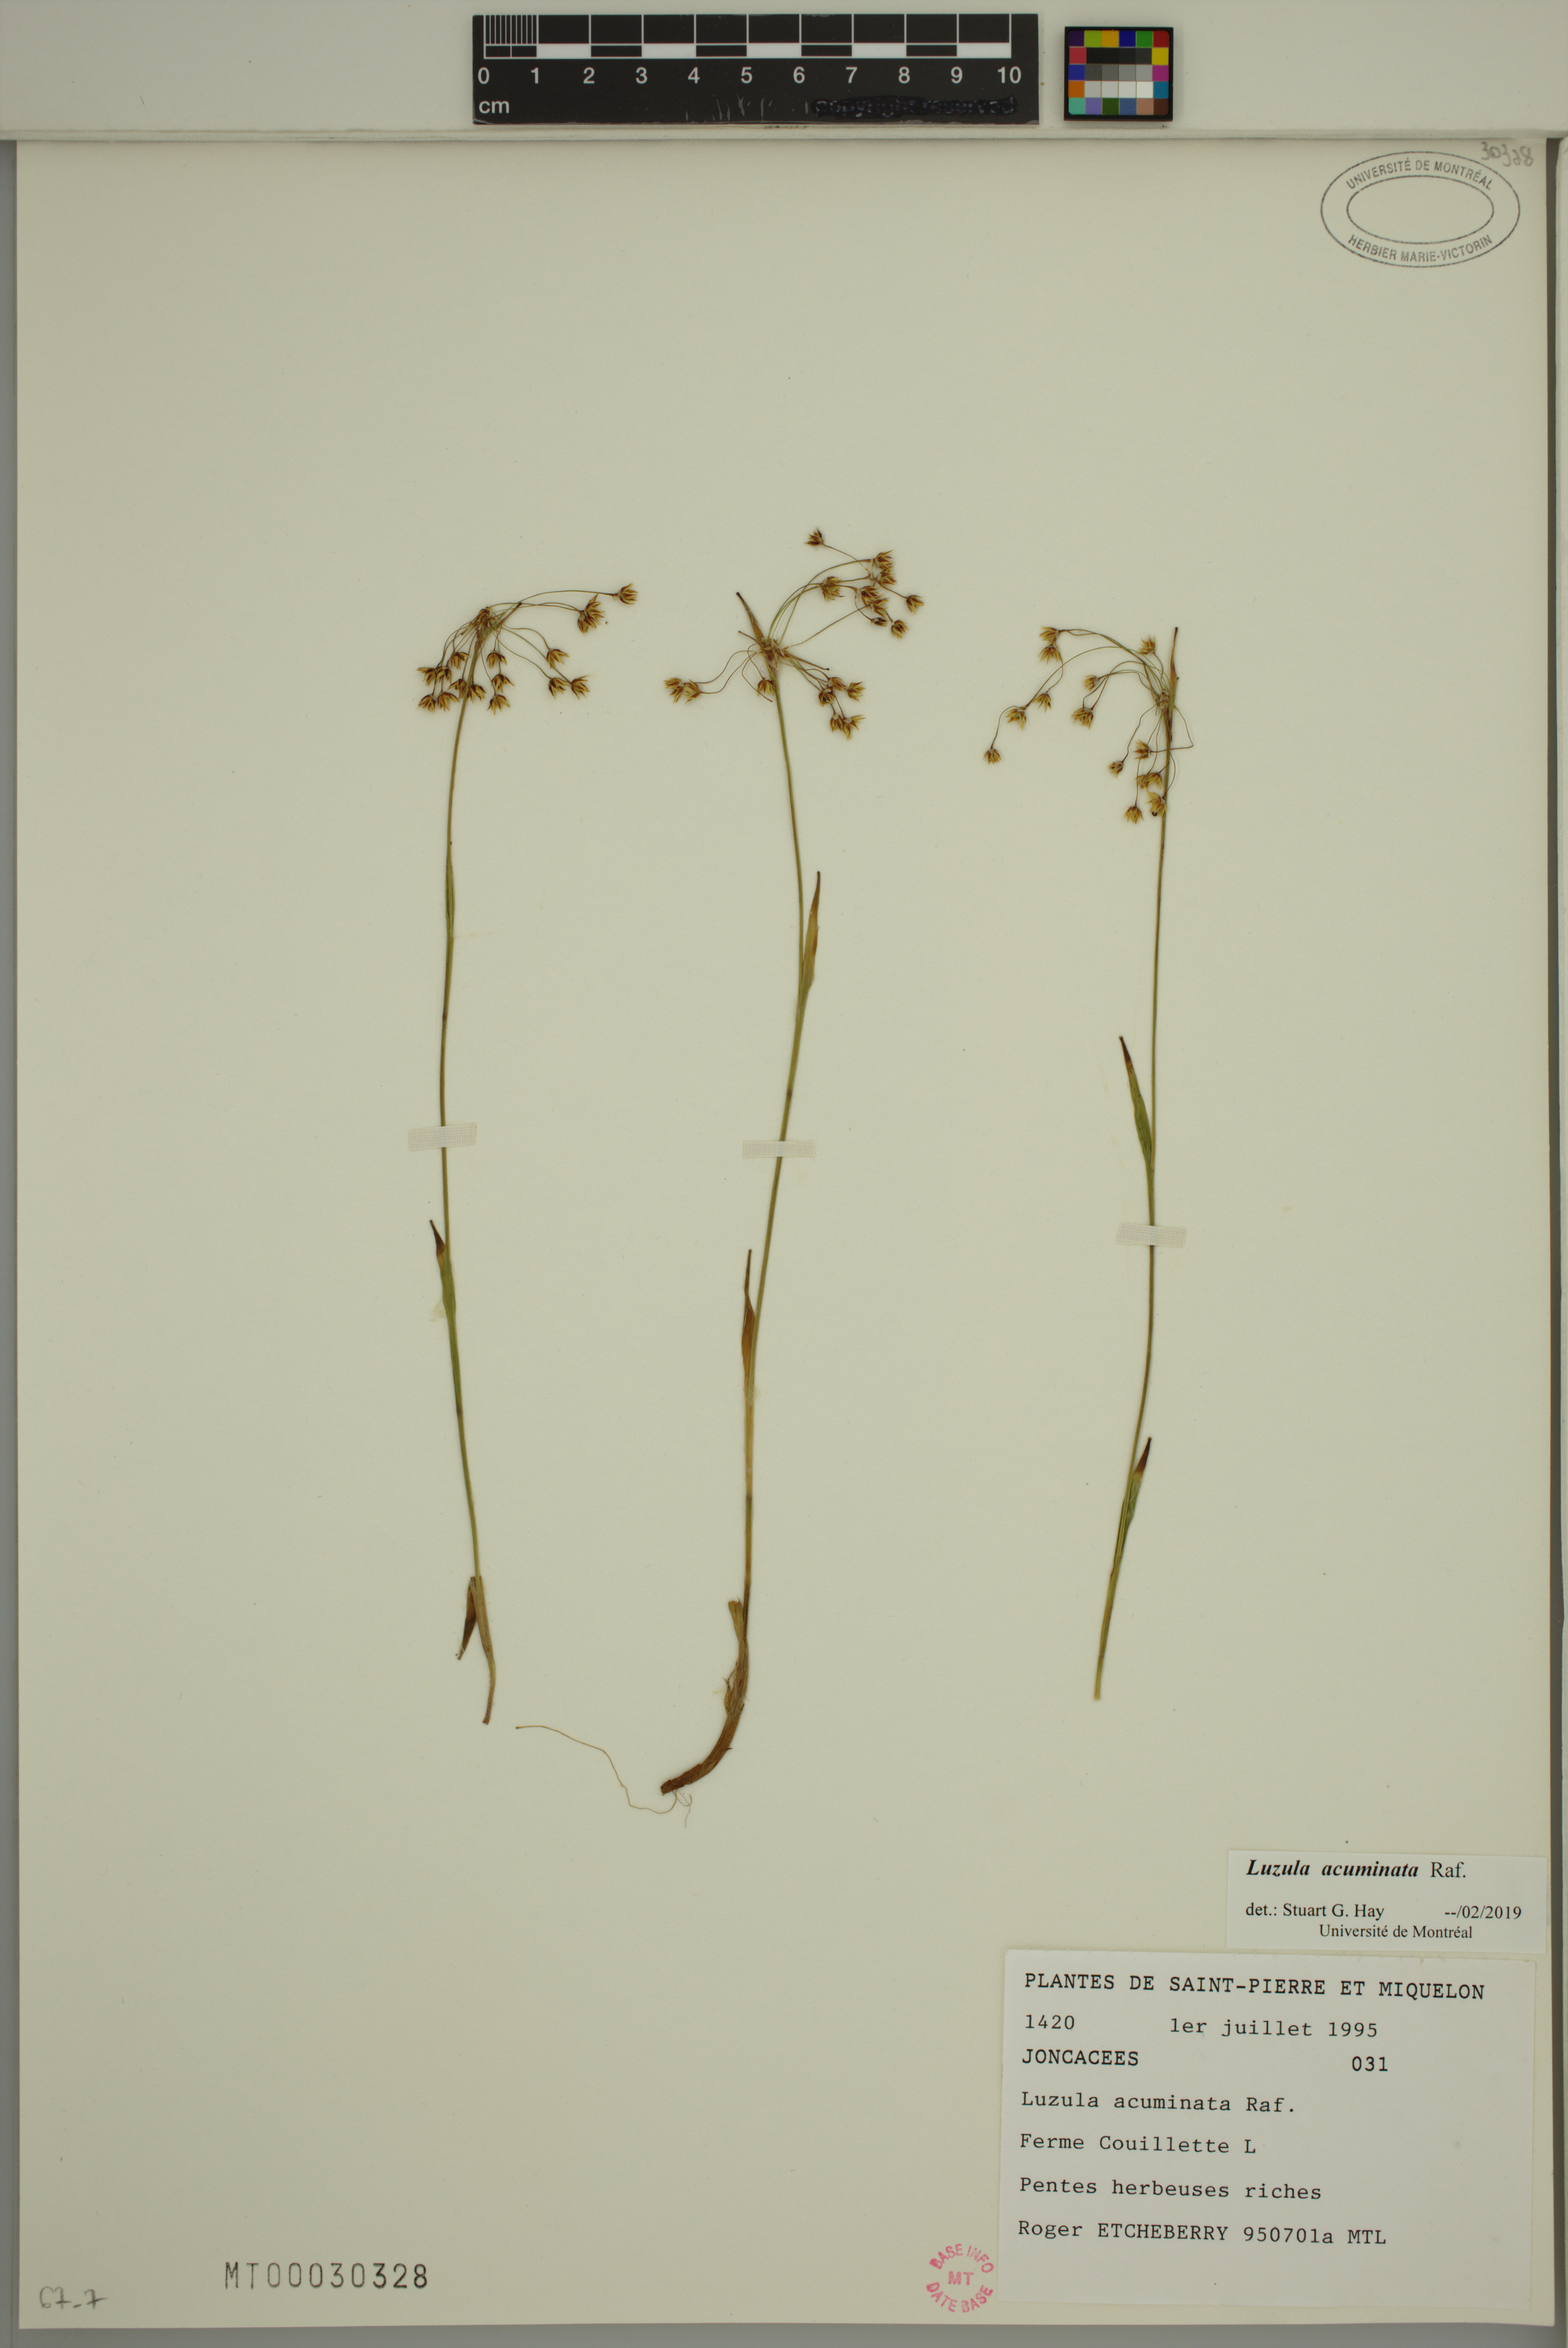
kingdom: Plantae
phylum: Tracheophyta
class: Liliopsida
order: Poales
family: Juncaceae
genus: Luzula
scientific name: Luzula acuminata
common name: Hairy woodrush
